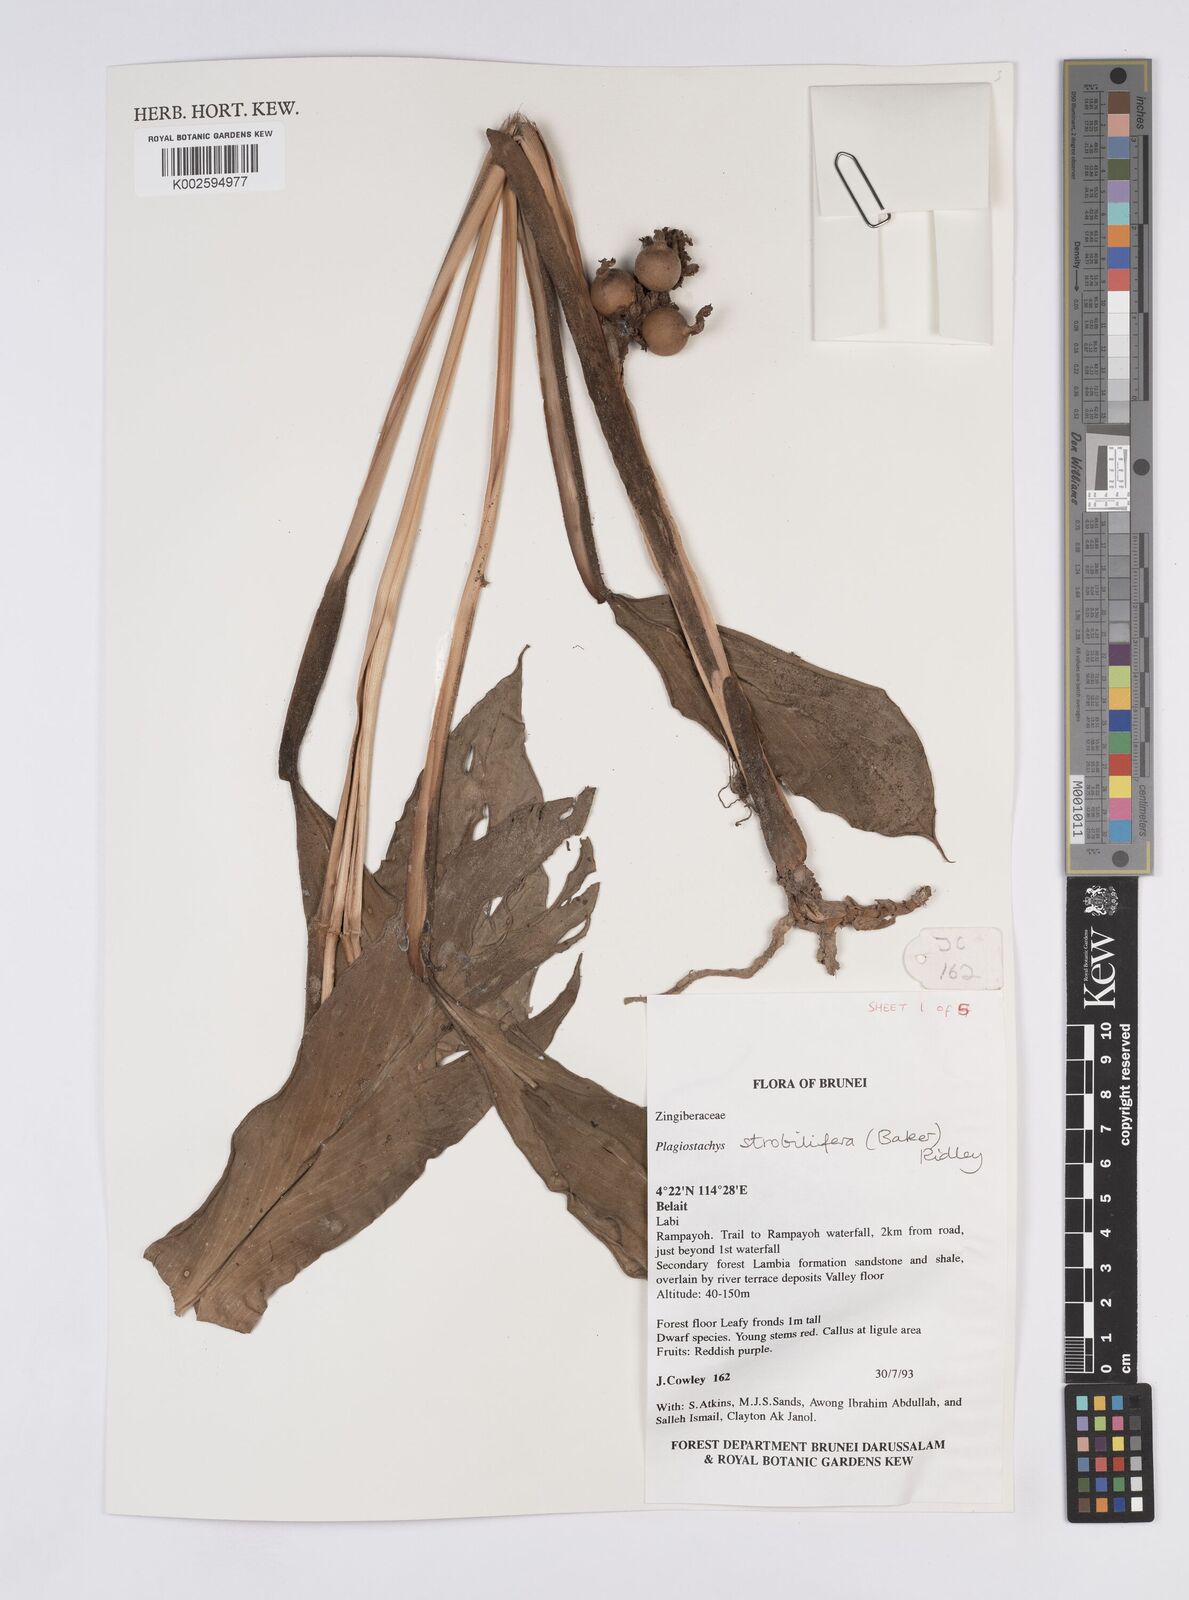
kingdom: Plantae
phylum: Tracheophyta
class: Liliopsida
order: Zingiberales
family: Zingiberaceae
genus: Plagiostachys
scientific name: Plagiostachys strobilifera
